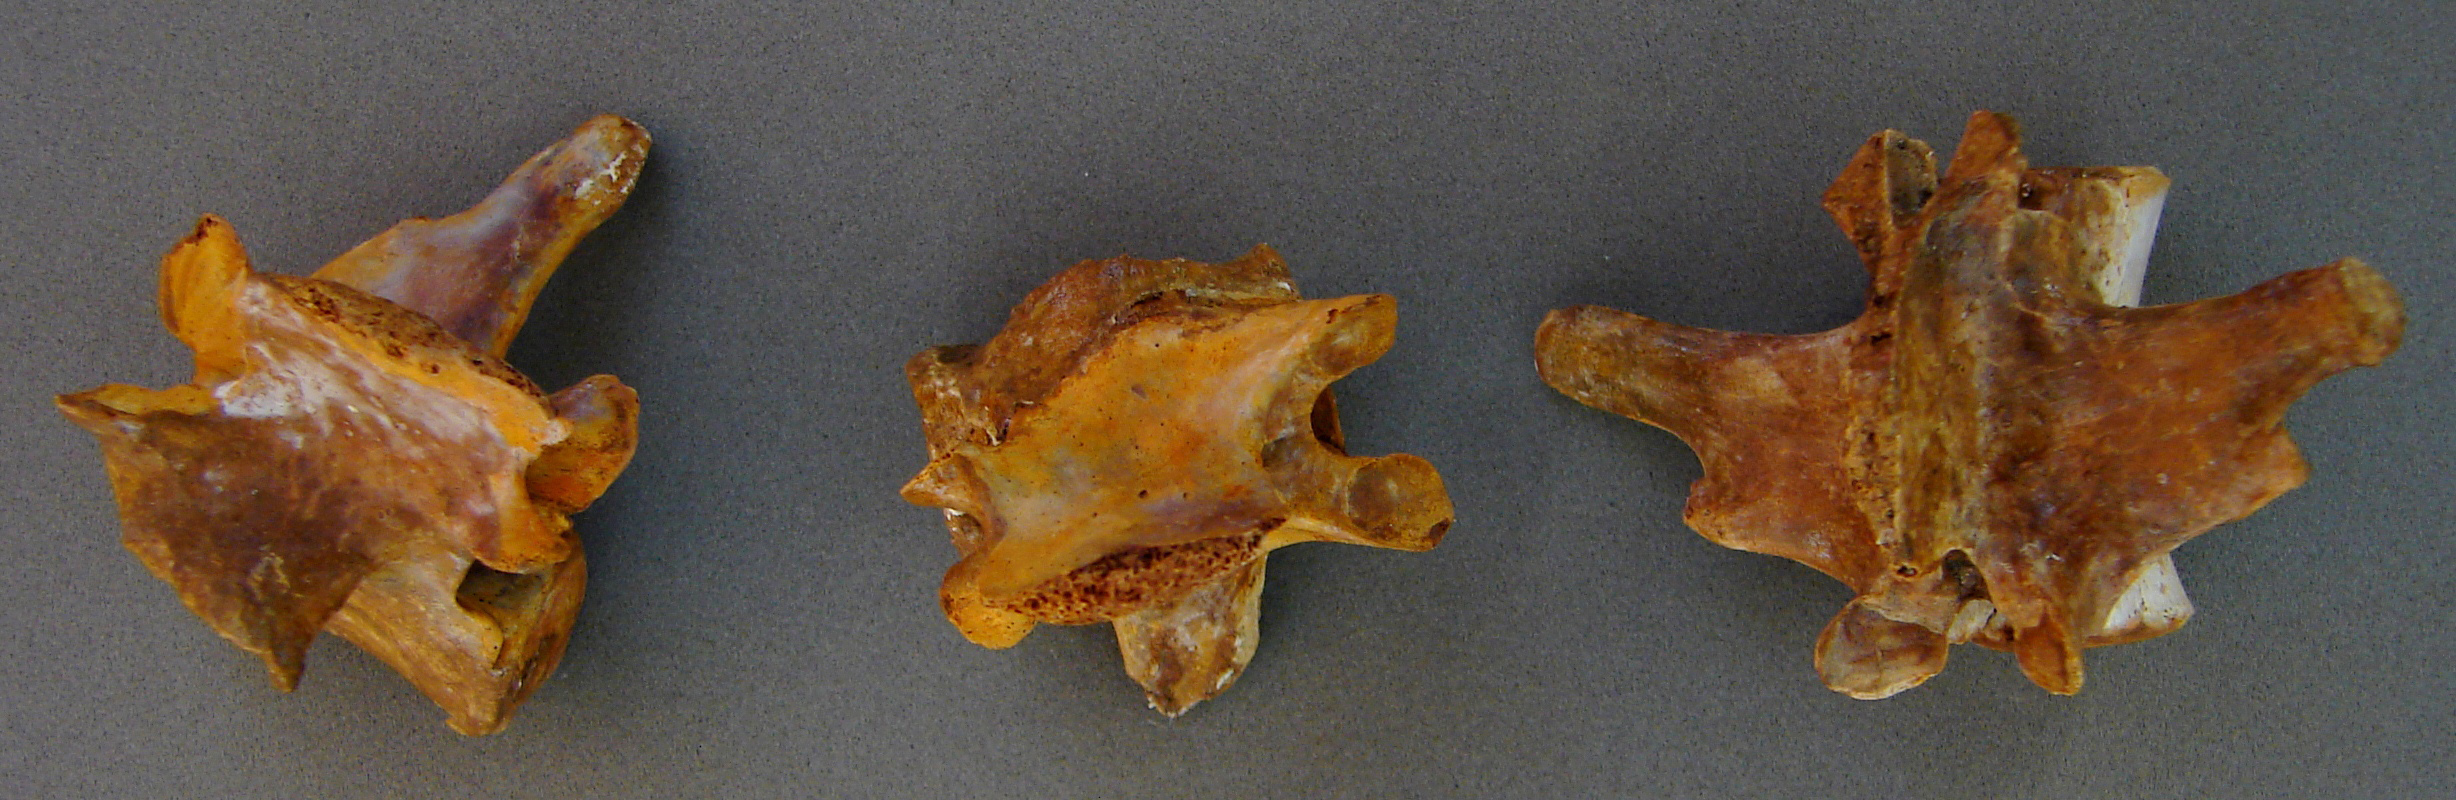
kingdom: Animalia
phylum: Chordata
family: Metriorhynchidae
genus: Pelagosaurus
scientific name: Pelagosaurus
